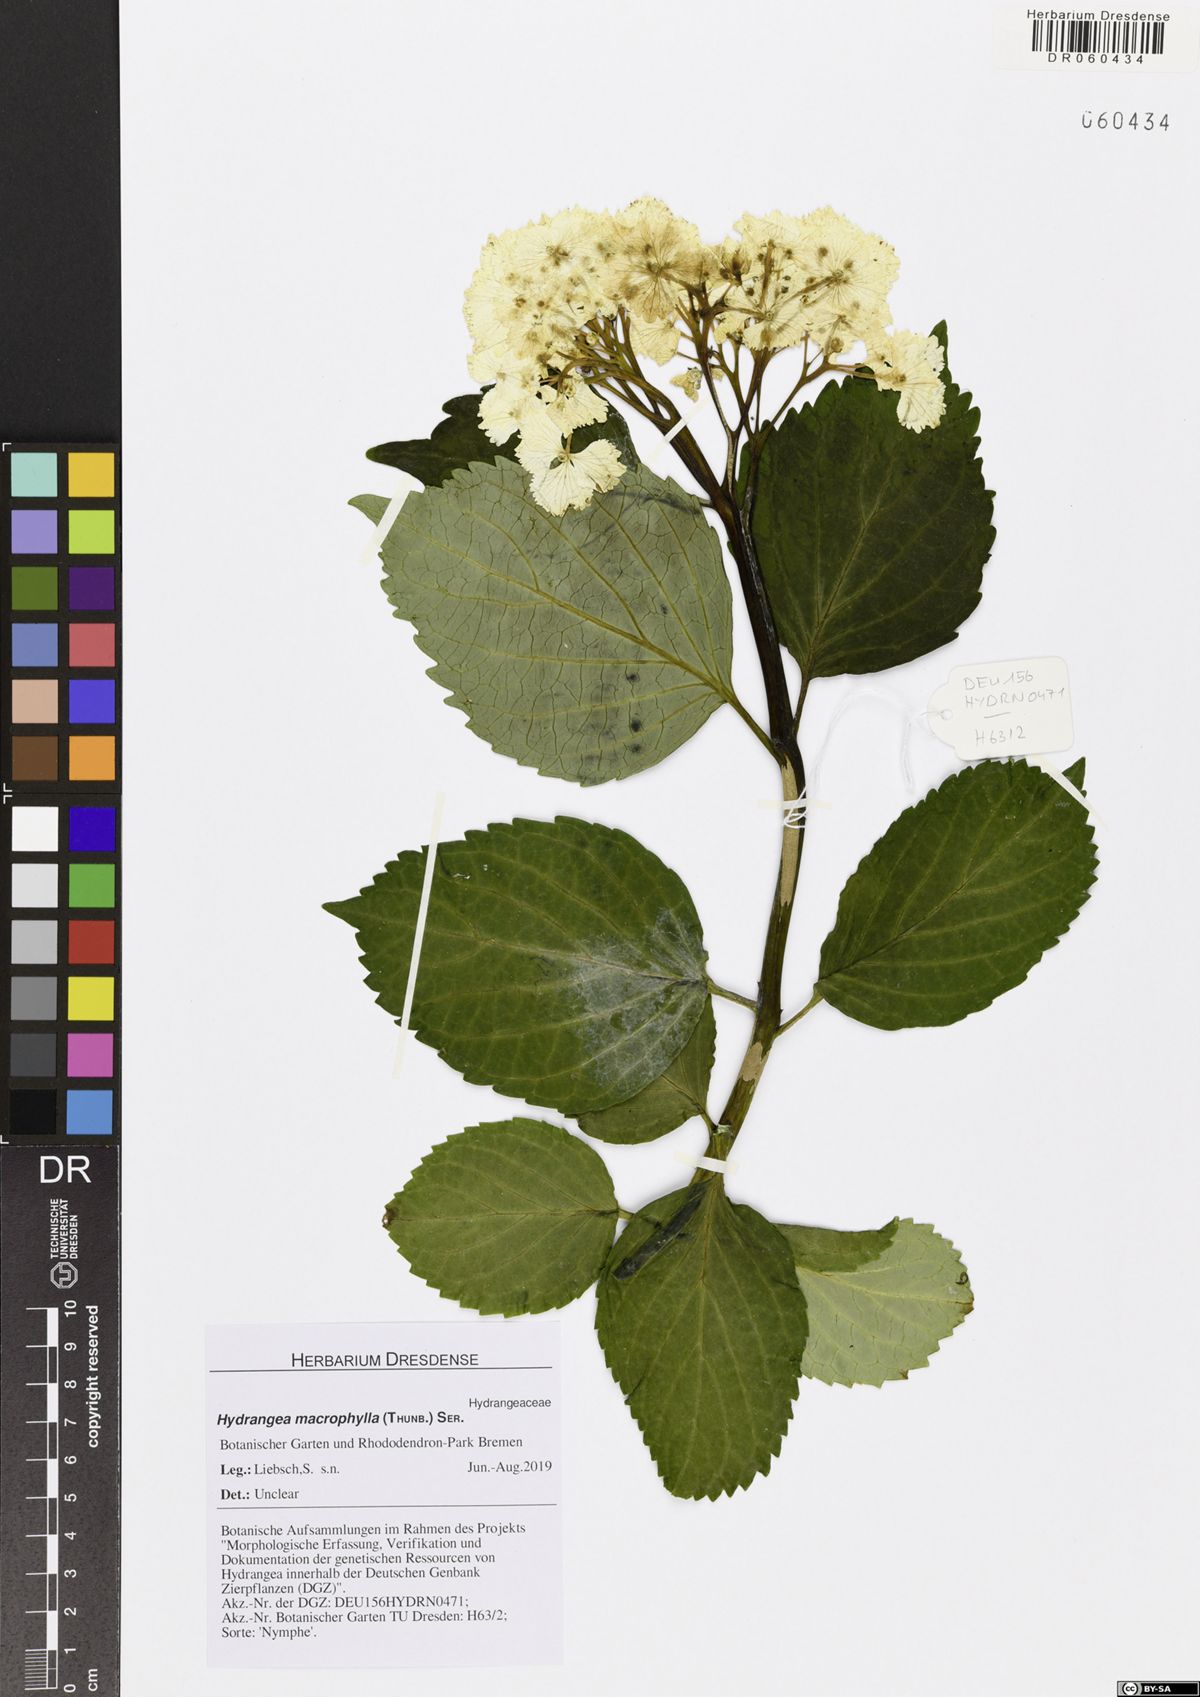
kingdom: Plantae
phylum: Tracheophyta
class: Magnoliopsida
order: Cornales
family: Hydrangeaceae
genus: Hydrangea
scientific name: Hydrangea macrophylla
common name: Hydrangea
